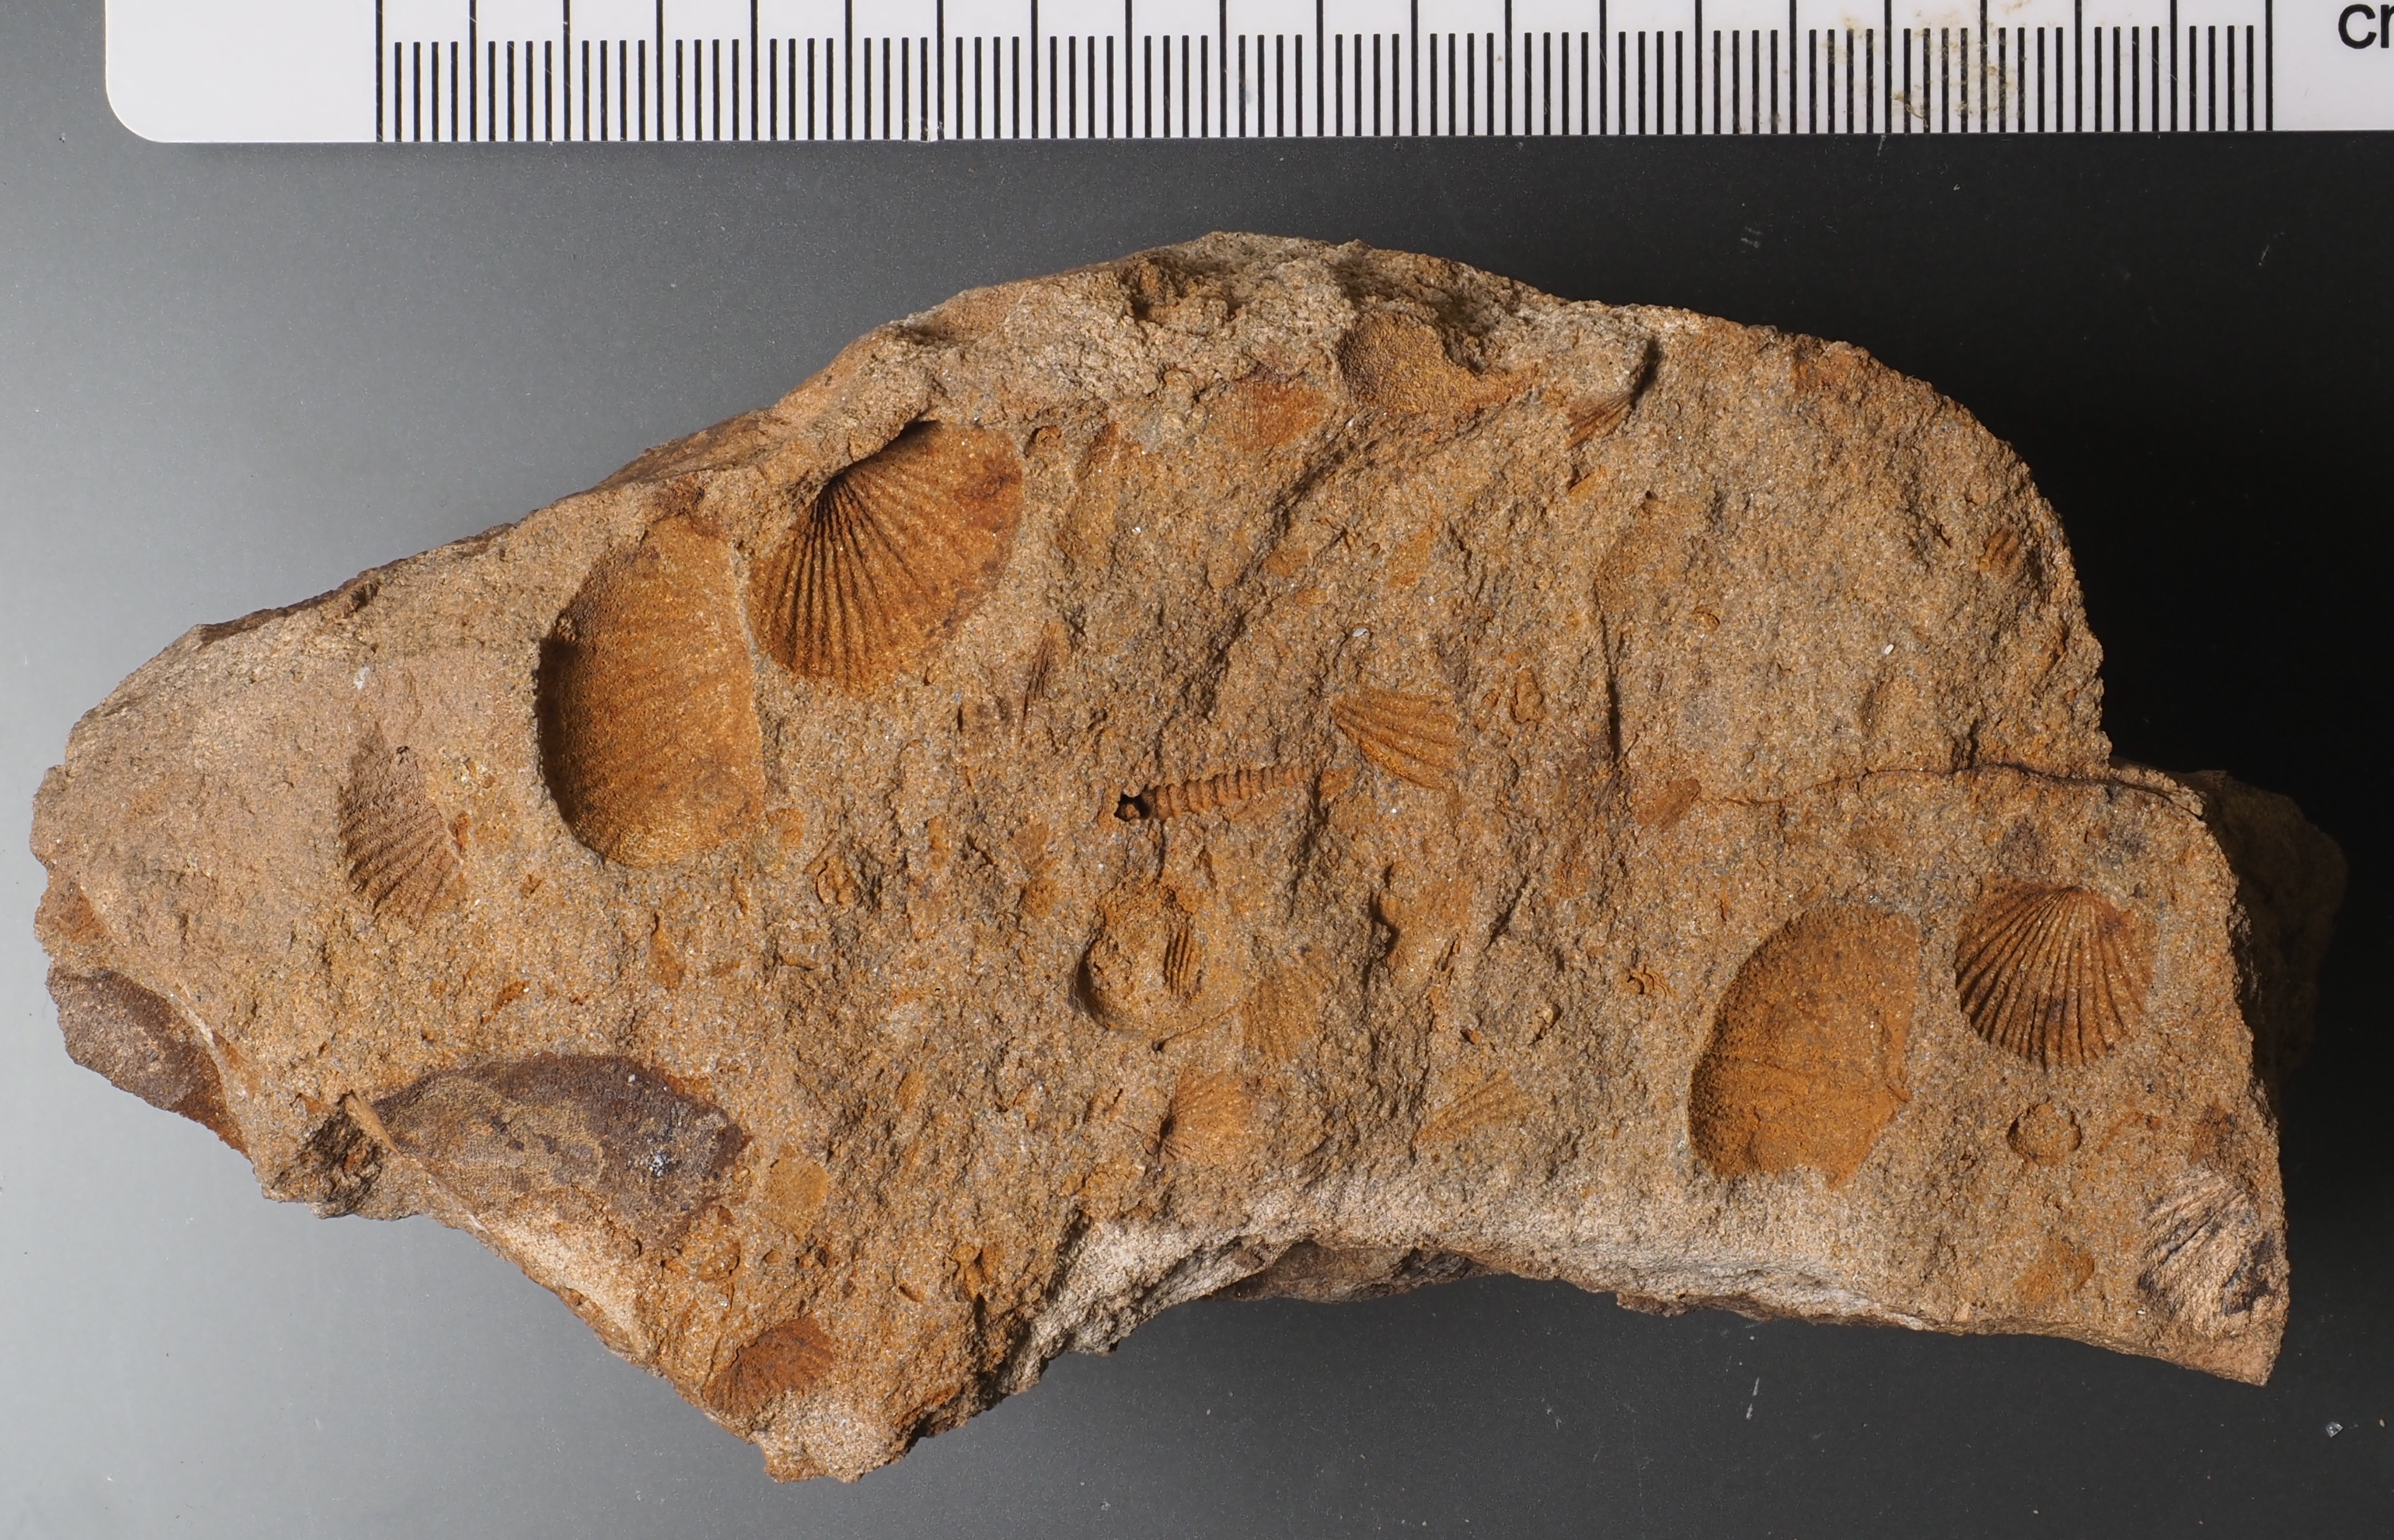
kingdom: Animalia
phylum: Brachiopoda
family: Chonetidae
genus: Plebejochonetes
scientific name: Plebejochonetes
